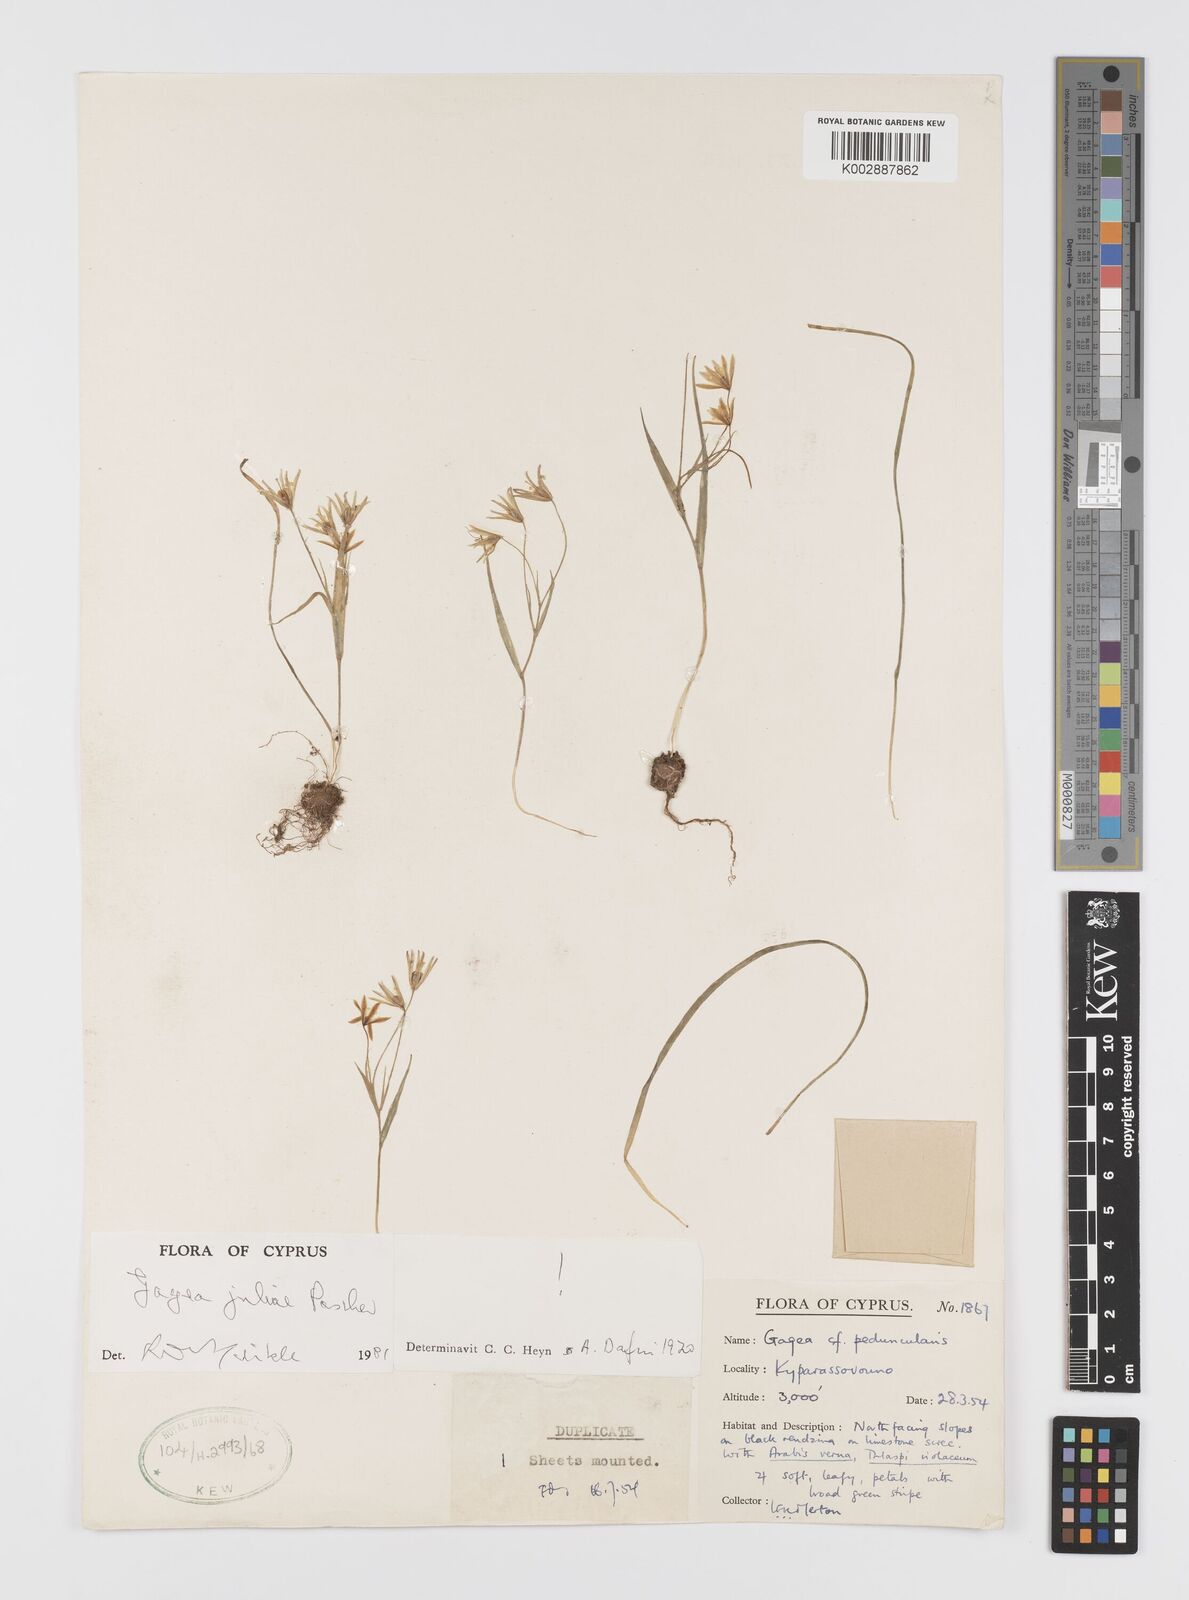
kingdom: Plantae
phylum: Tracheophyta
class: Liliopsida
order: Liliales
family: Liliaceae
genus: Gagea
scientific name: Gagea juliae
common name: Julia’s gagea
